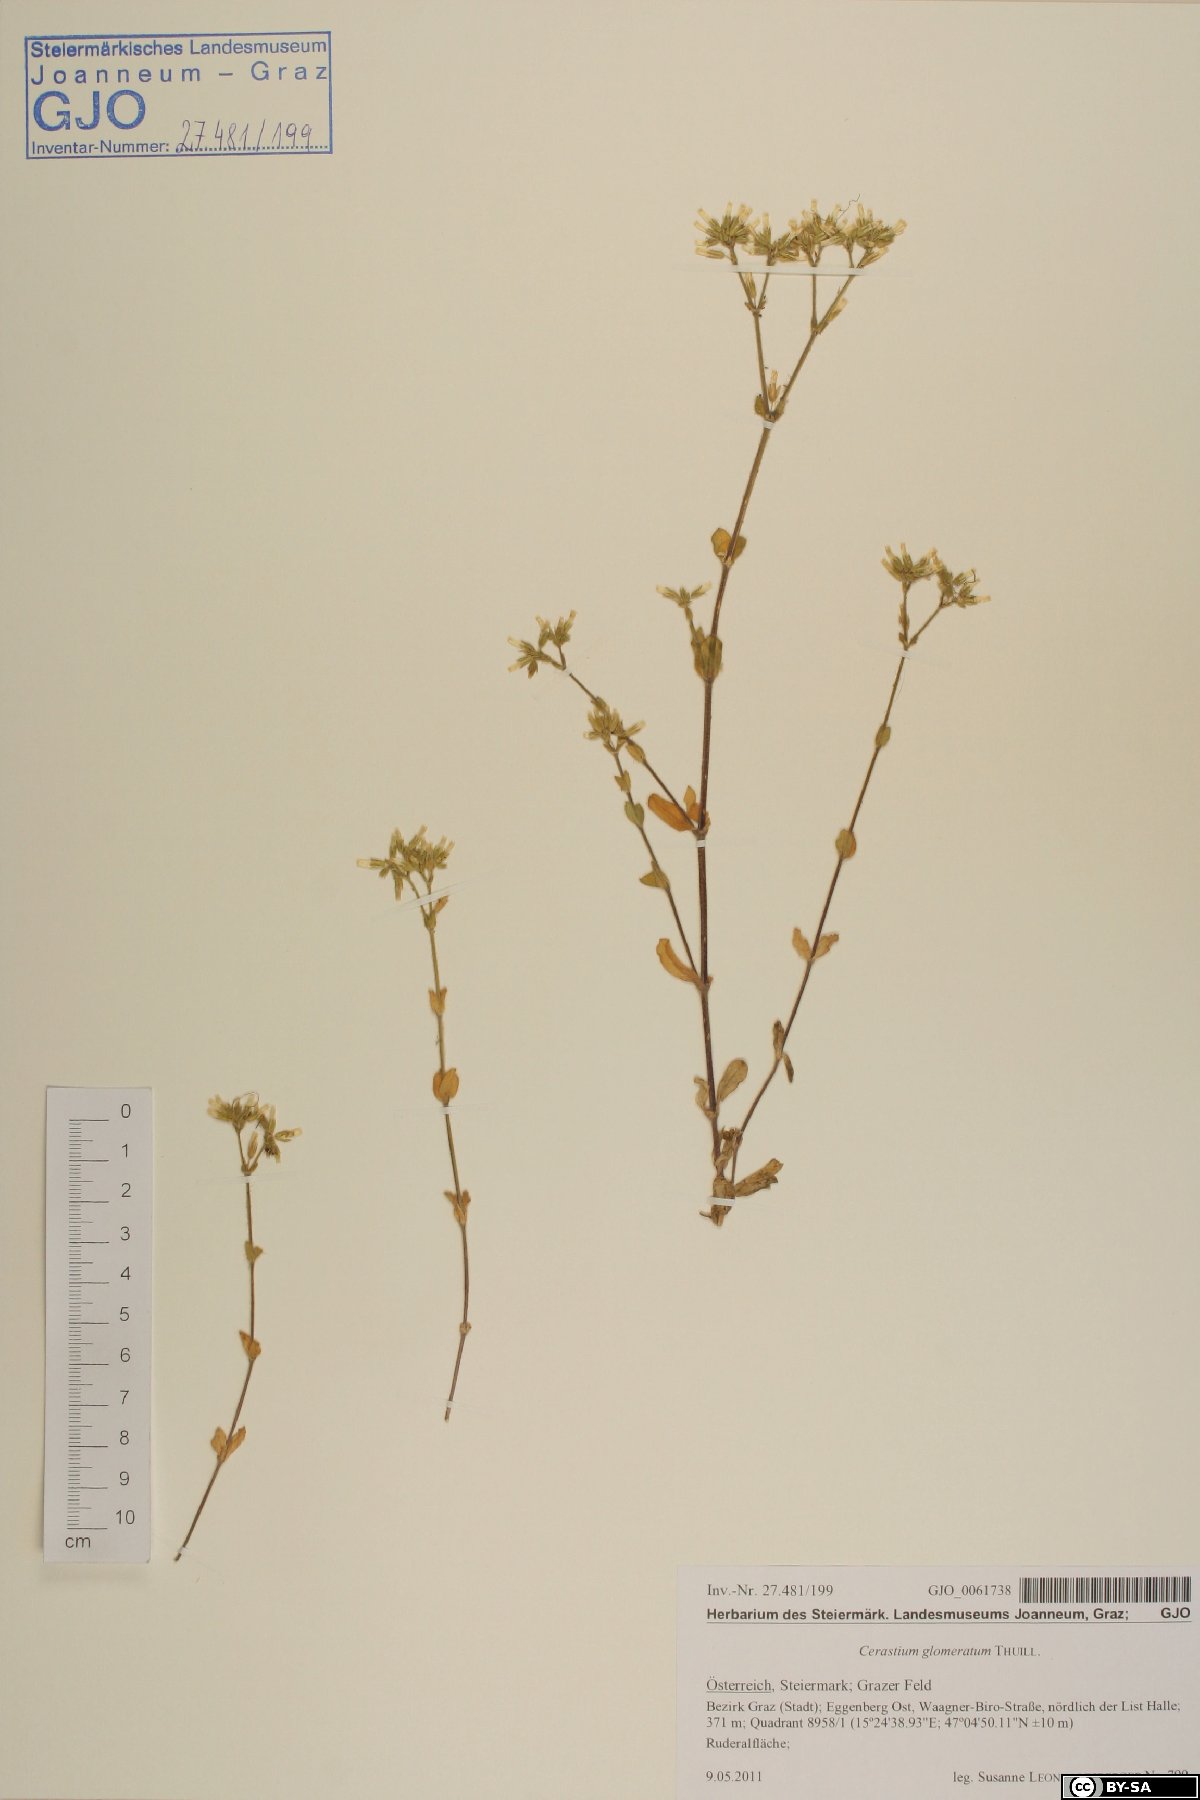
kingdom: Plantae
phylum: Tracheophyta
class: Magnoliopsida
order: Caryophyllales
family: Caryophyllaceae
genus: Cerastium
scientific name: Cerastium glomeratum
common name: Sticky chickweed
